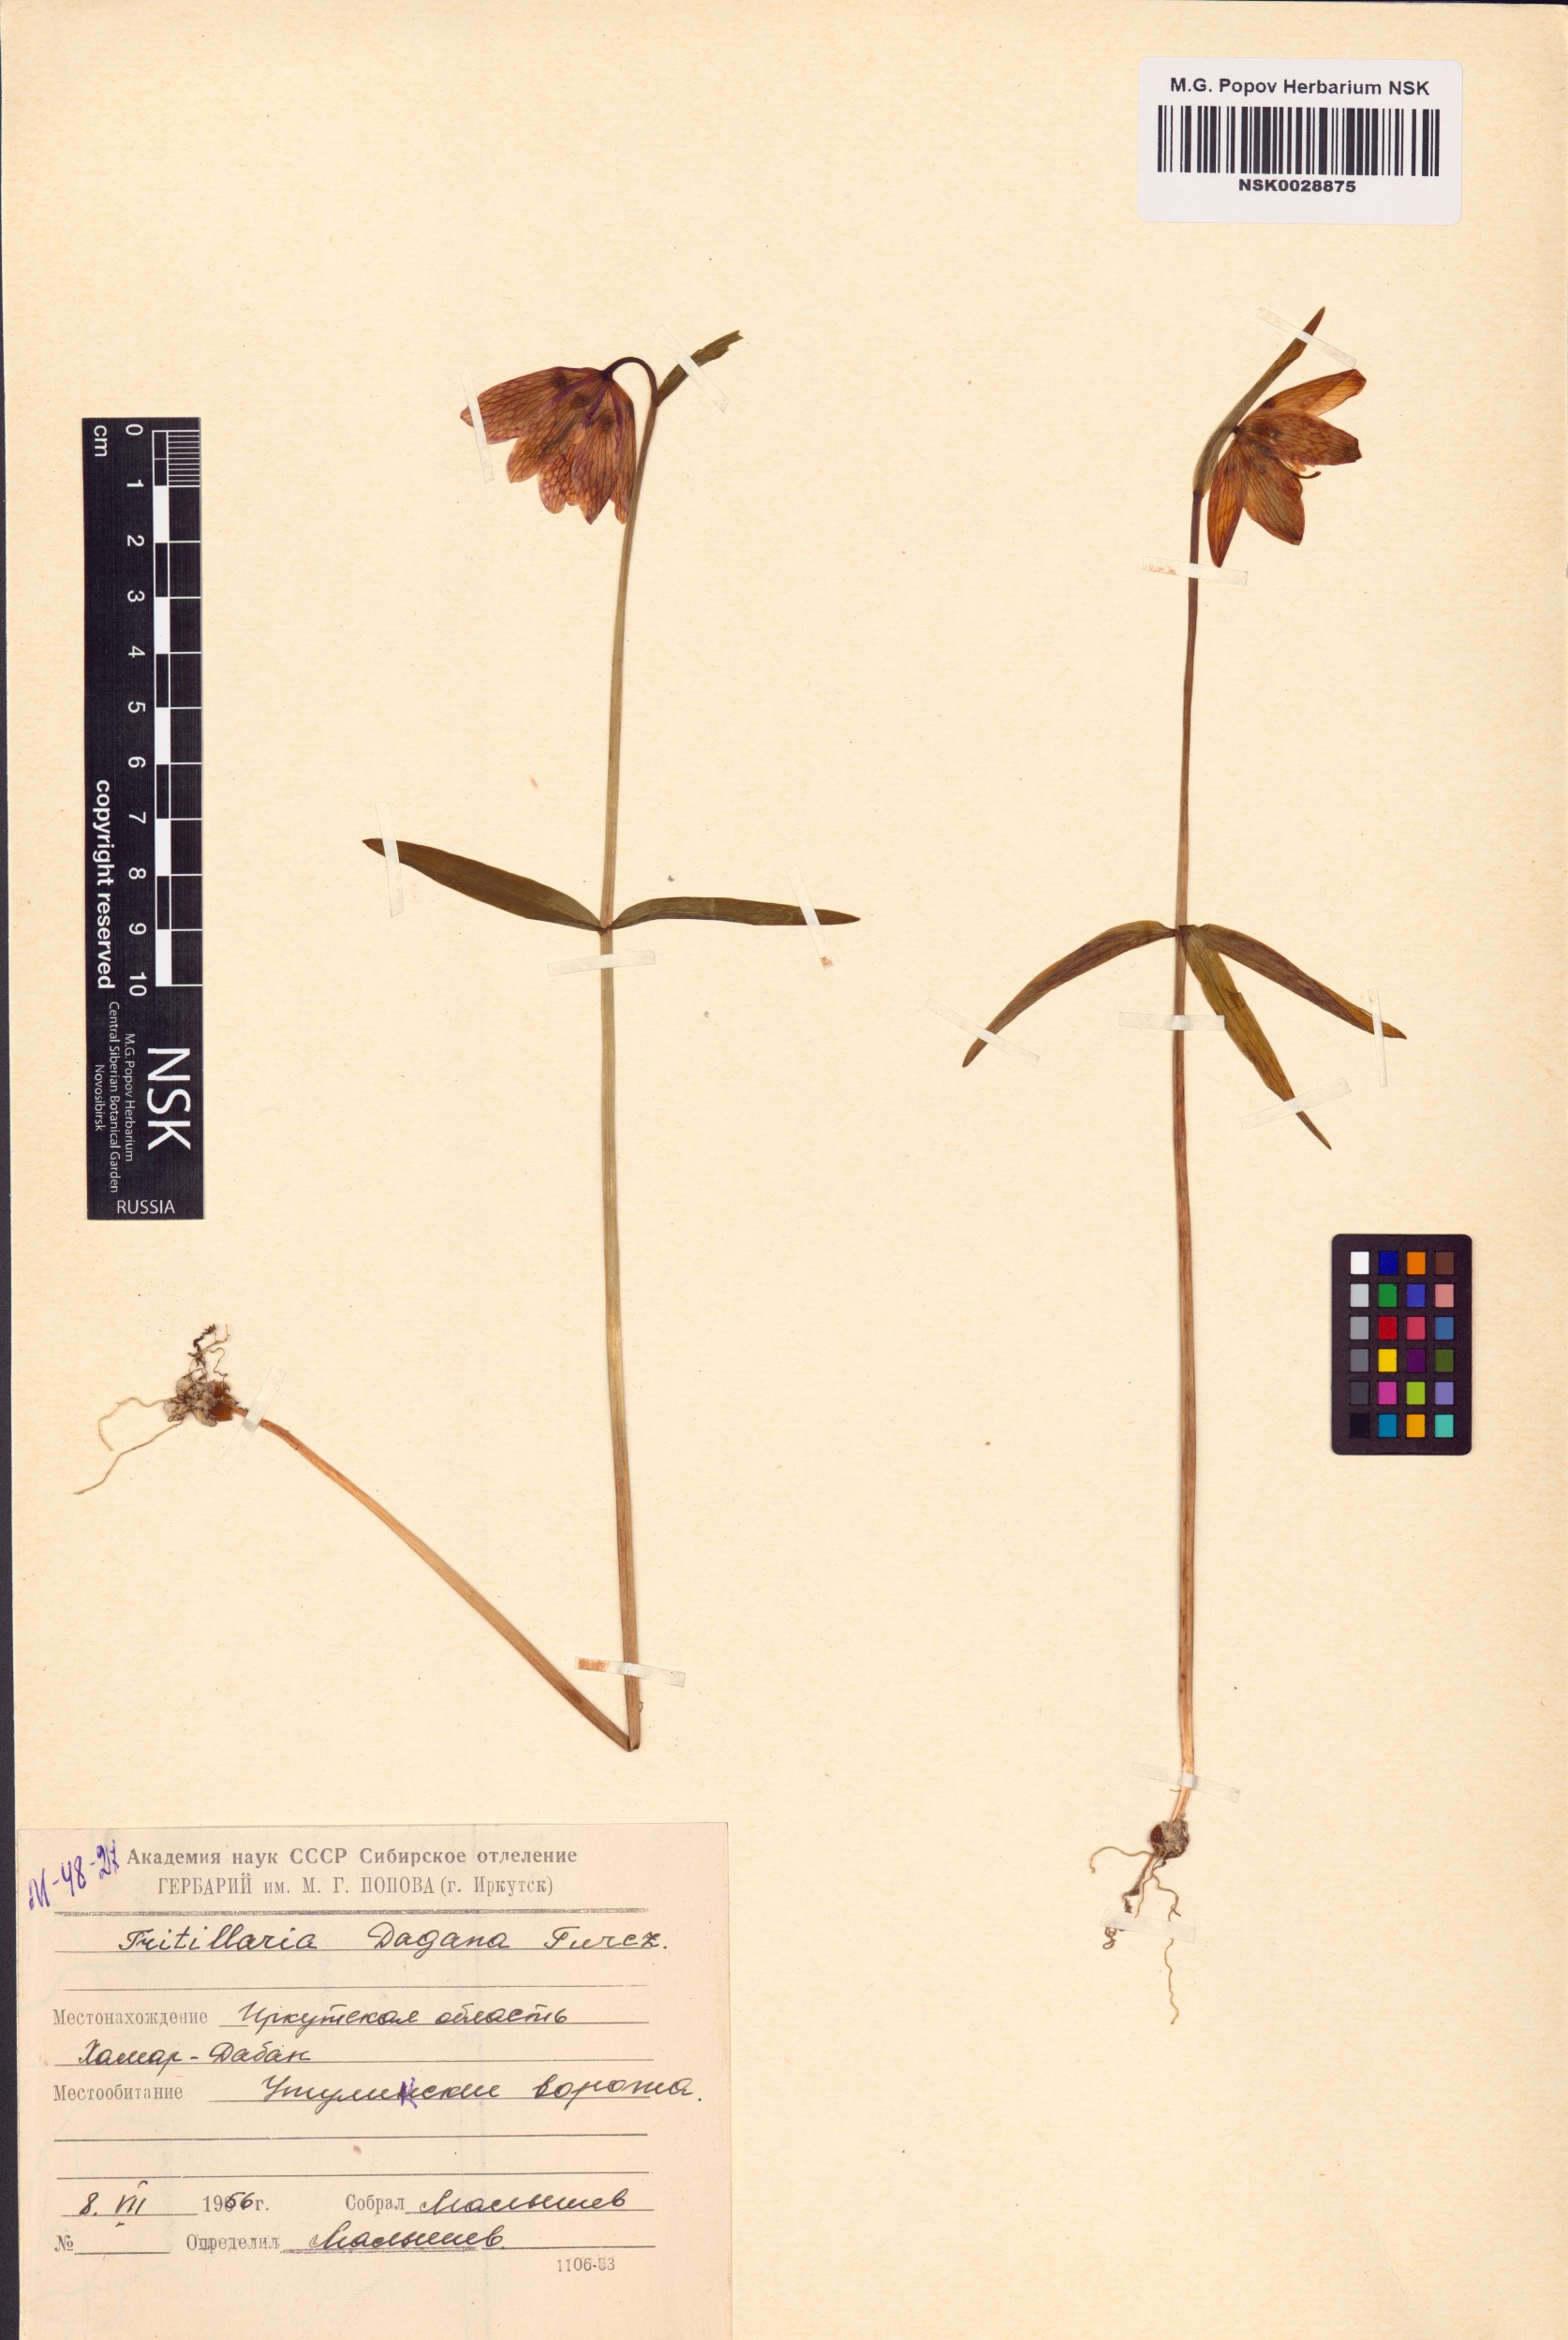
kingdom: Plantae
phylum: Tracheophyta
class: Liliopsida
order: Liliales
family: Liliaceae
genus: Fritillaria
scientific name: Fritillaria dagana
